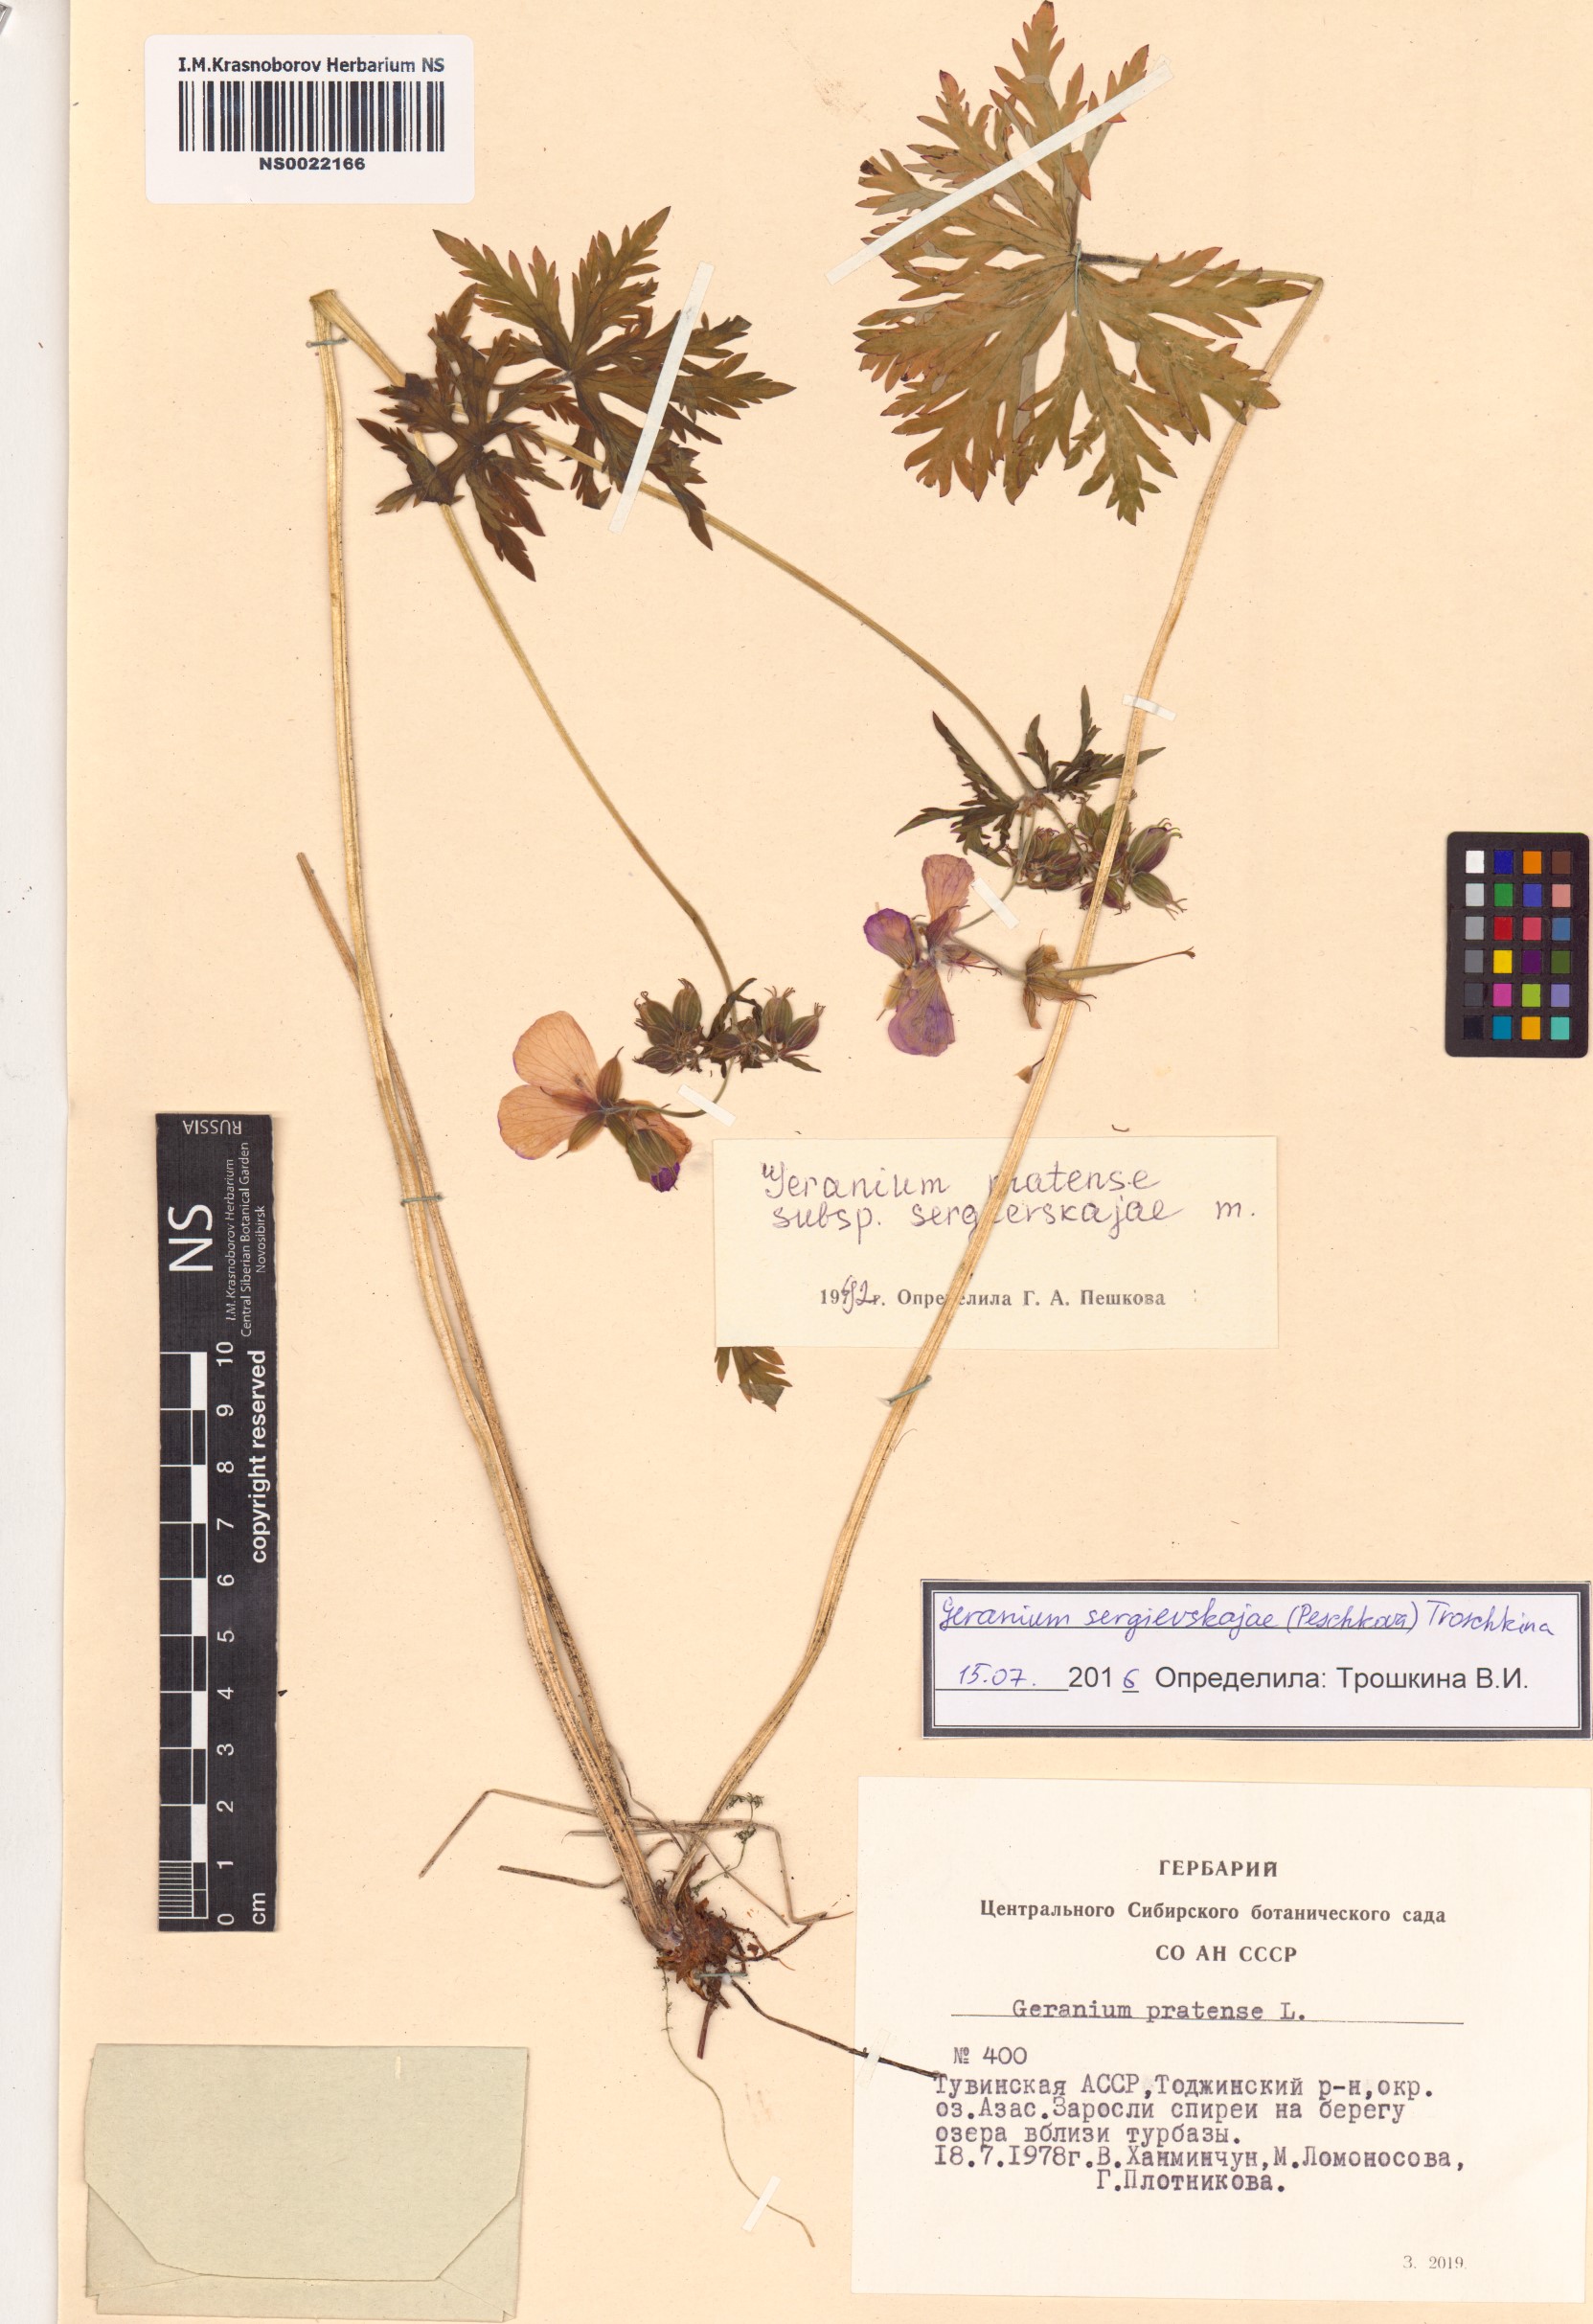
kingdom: Plantae
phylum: Tracheophyta
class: Magnoliopsida
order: Geraniales
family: Geraniaceae
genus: Geranium
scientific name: Geranium pratense
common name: Meadow crane's-bill
